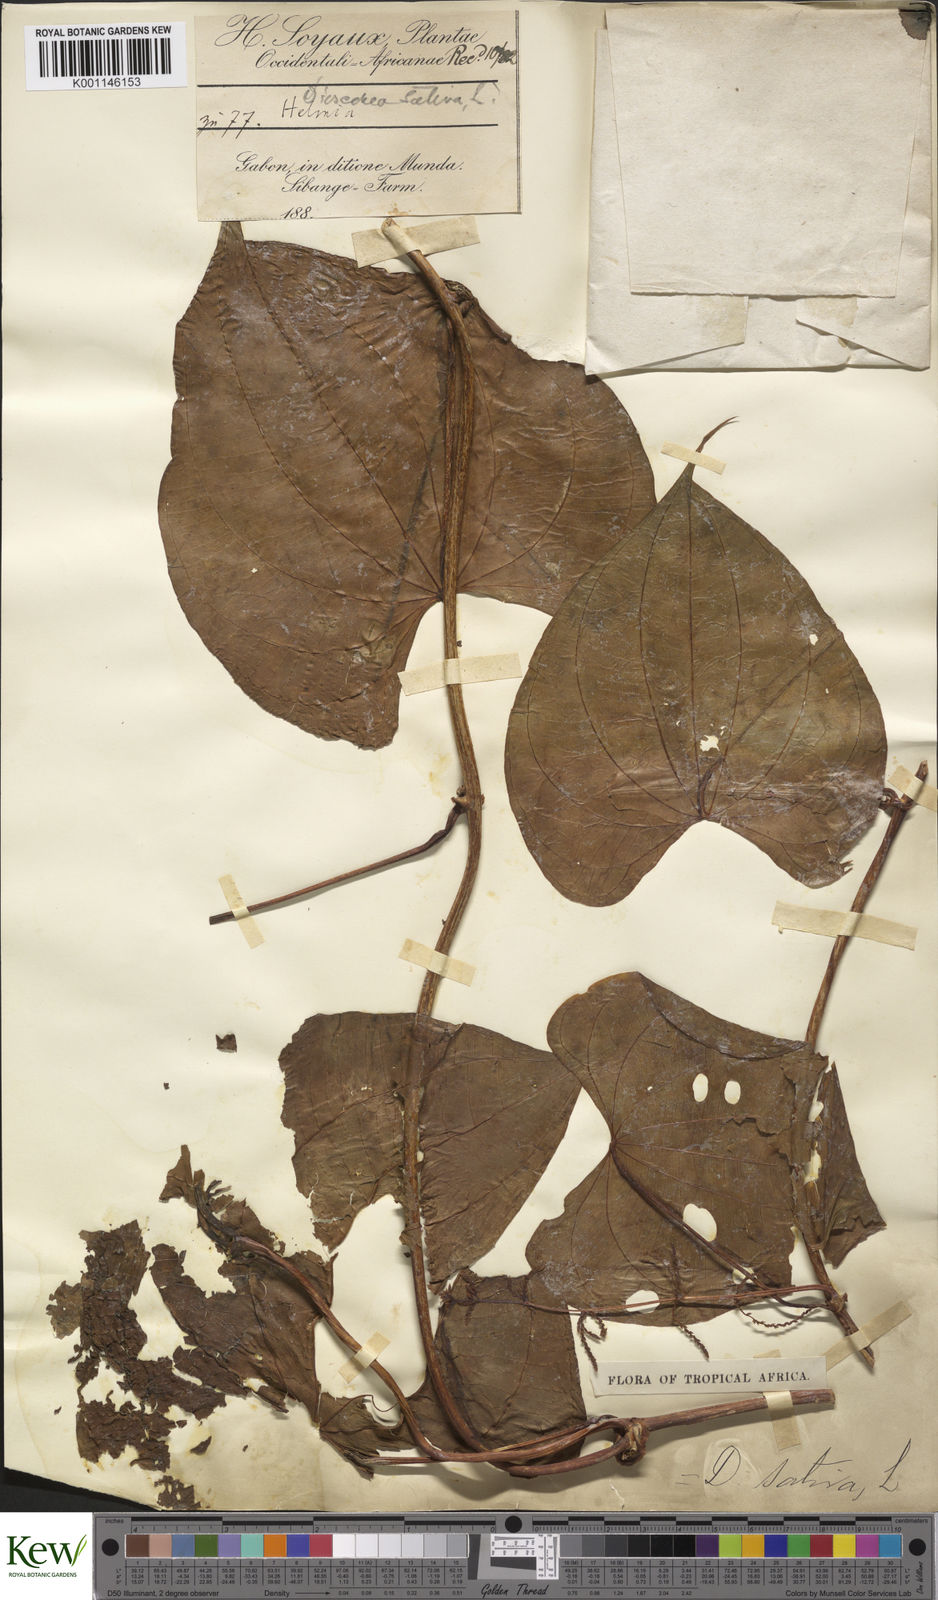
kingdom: Plantae
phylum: Tracheophyta
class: Liliopsida
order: Dioscoreales
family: Dioscoreaceae
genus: Dioscorea
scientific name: Dioscorea bulbifera
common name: Air yam
